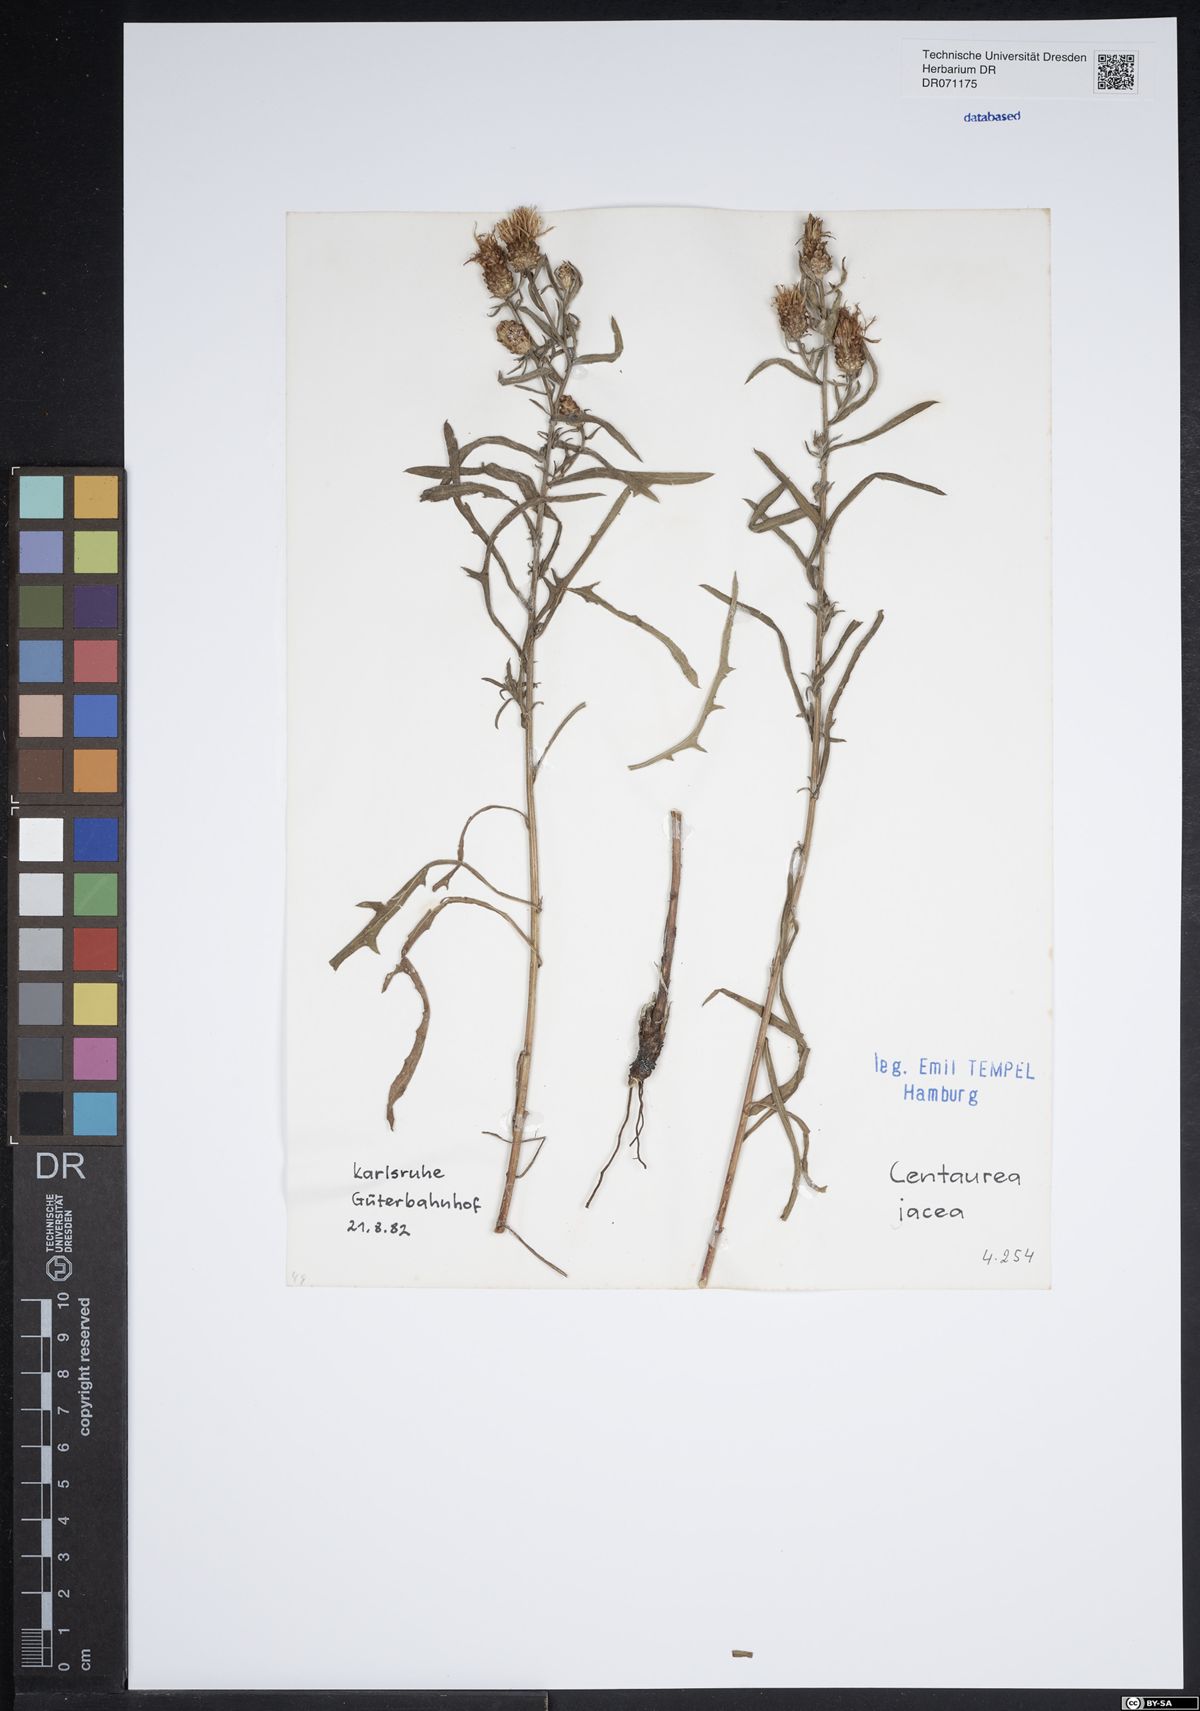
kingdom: Plantae
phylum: Tracheophyta
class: Magnoliopsida
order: Asterales
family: Asteraceae
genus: Centaurea
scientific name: Centaurea jacea
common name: Brown knapweed
